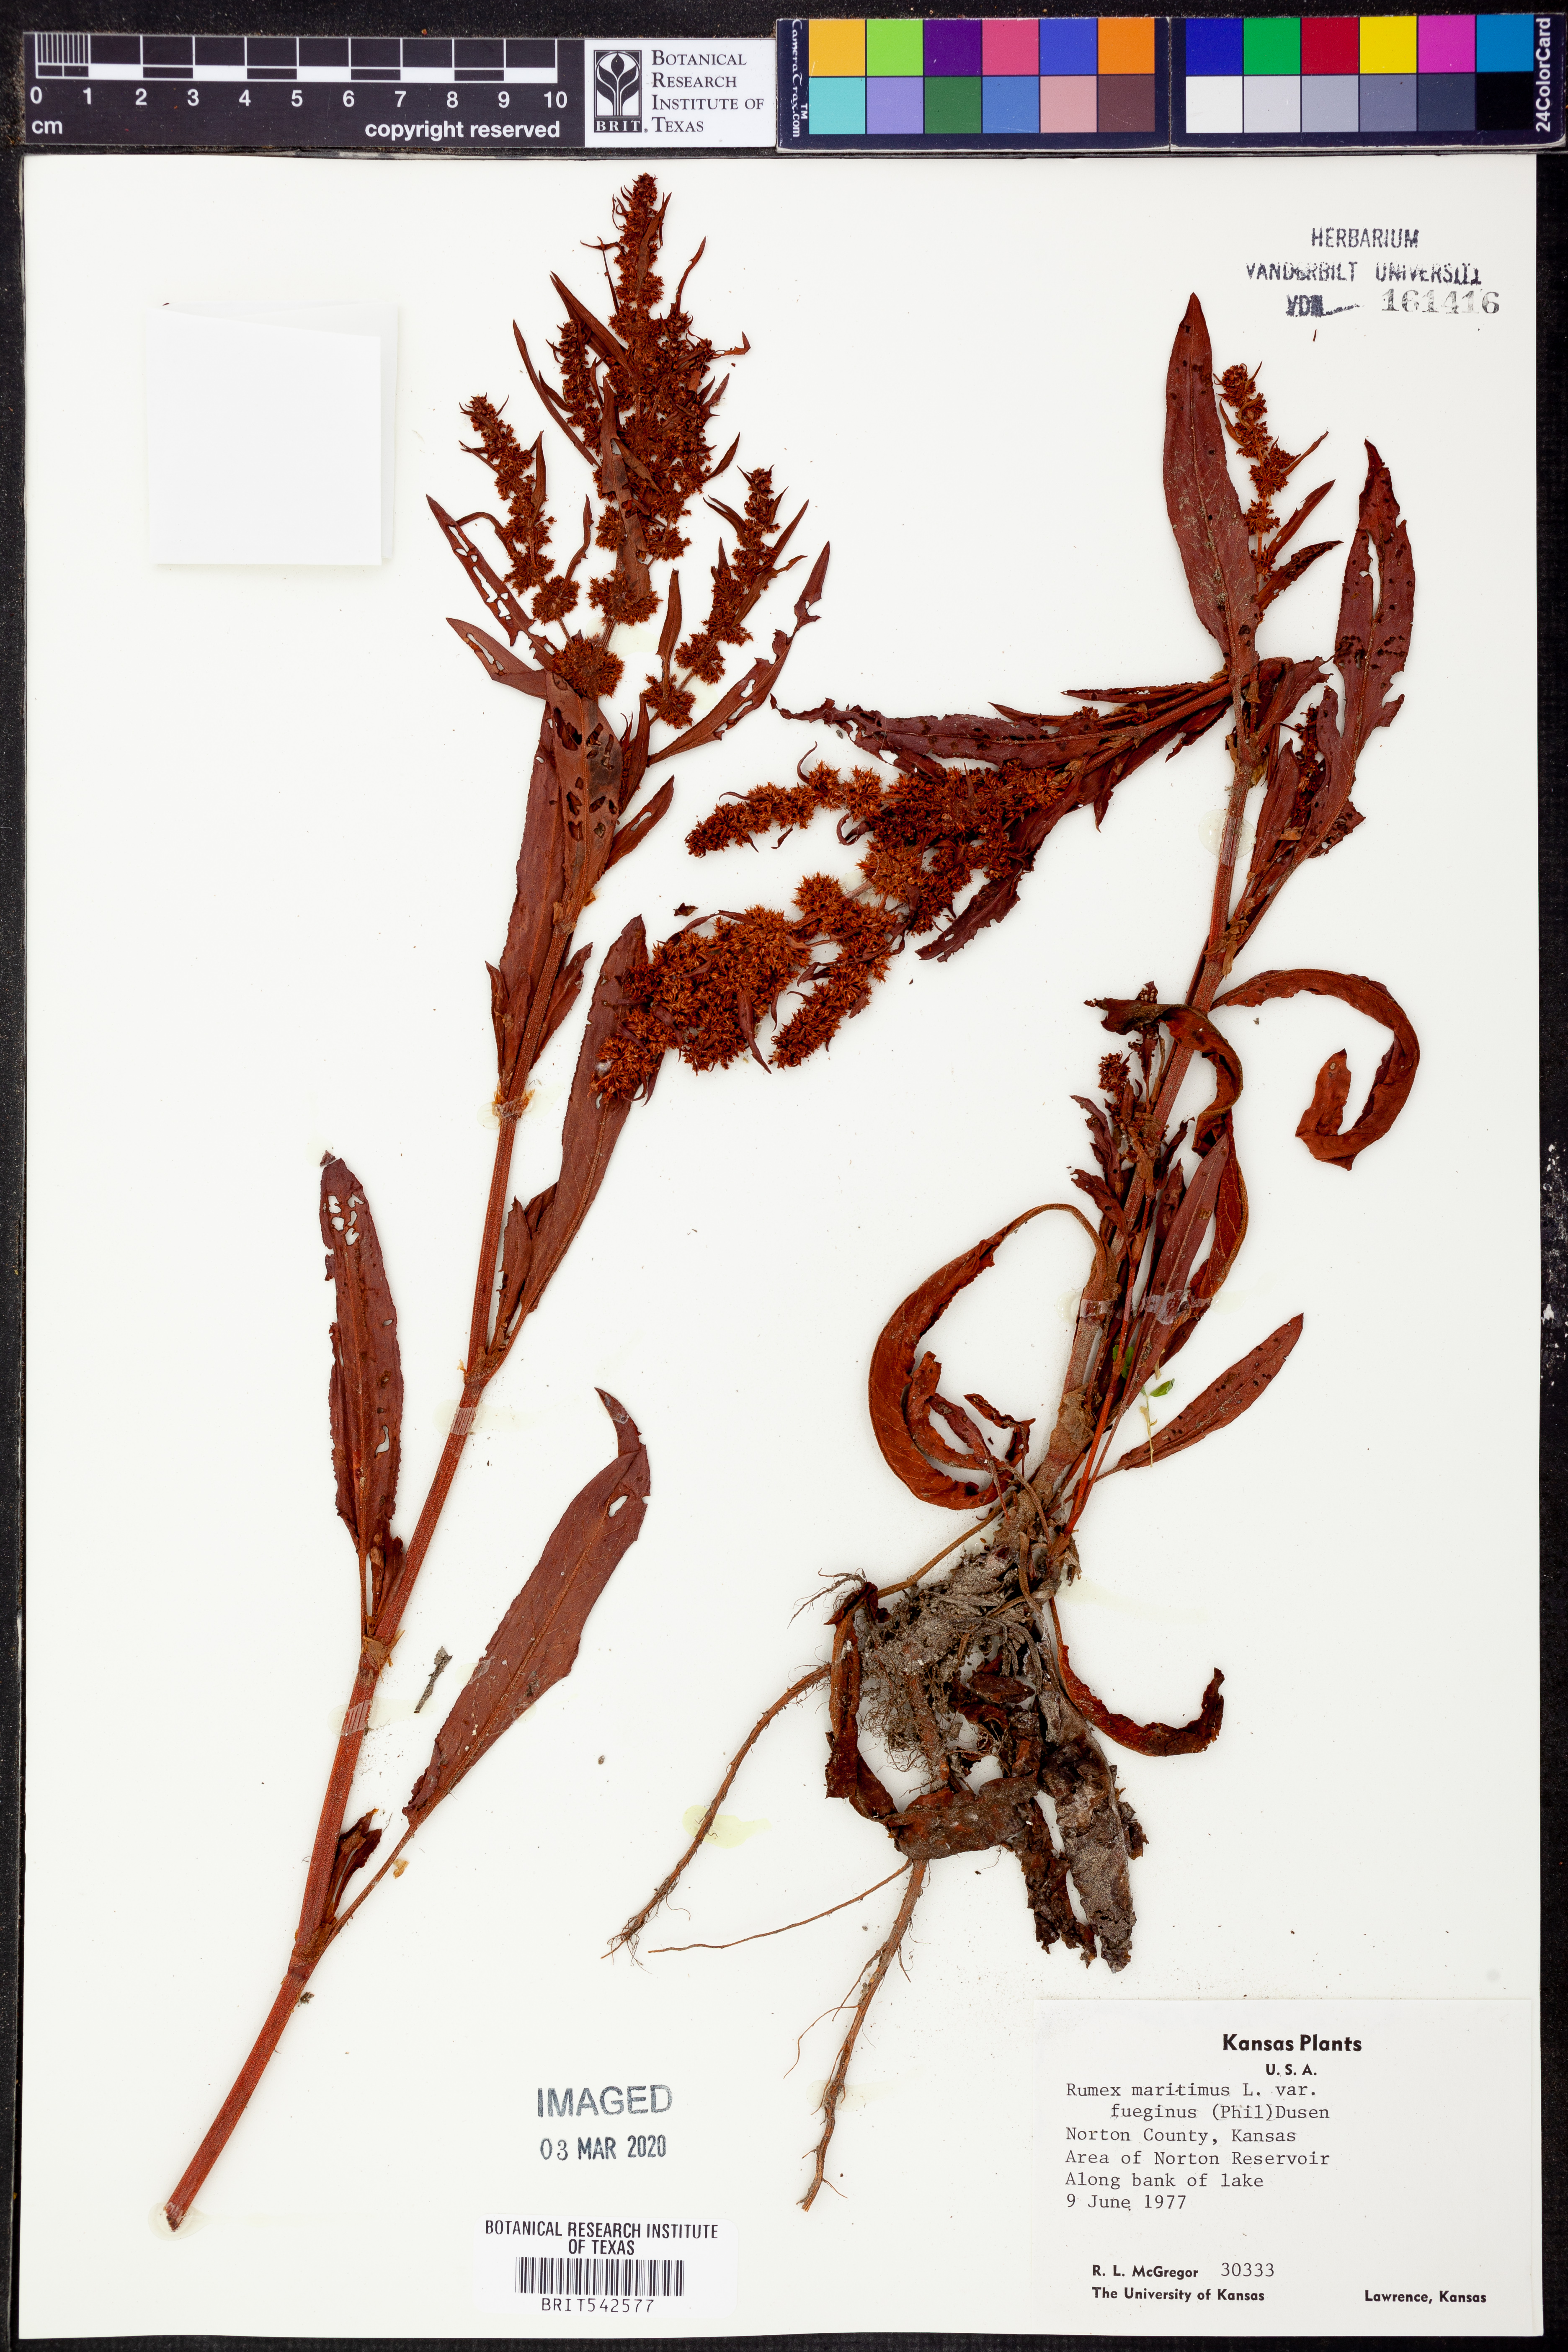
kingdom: Plantae
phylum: Tracheophyta
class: Magnoliopsida
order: Caryophyllales
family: Polygonaceae
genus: Rumex
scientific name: Rumex maritimus
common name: Golden dock
